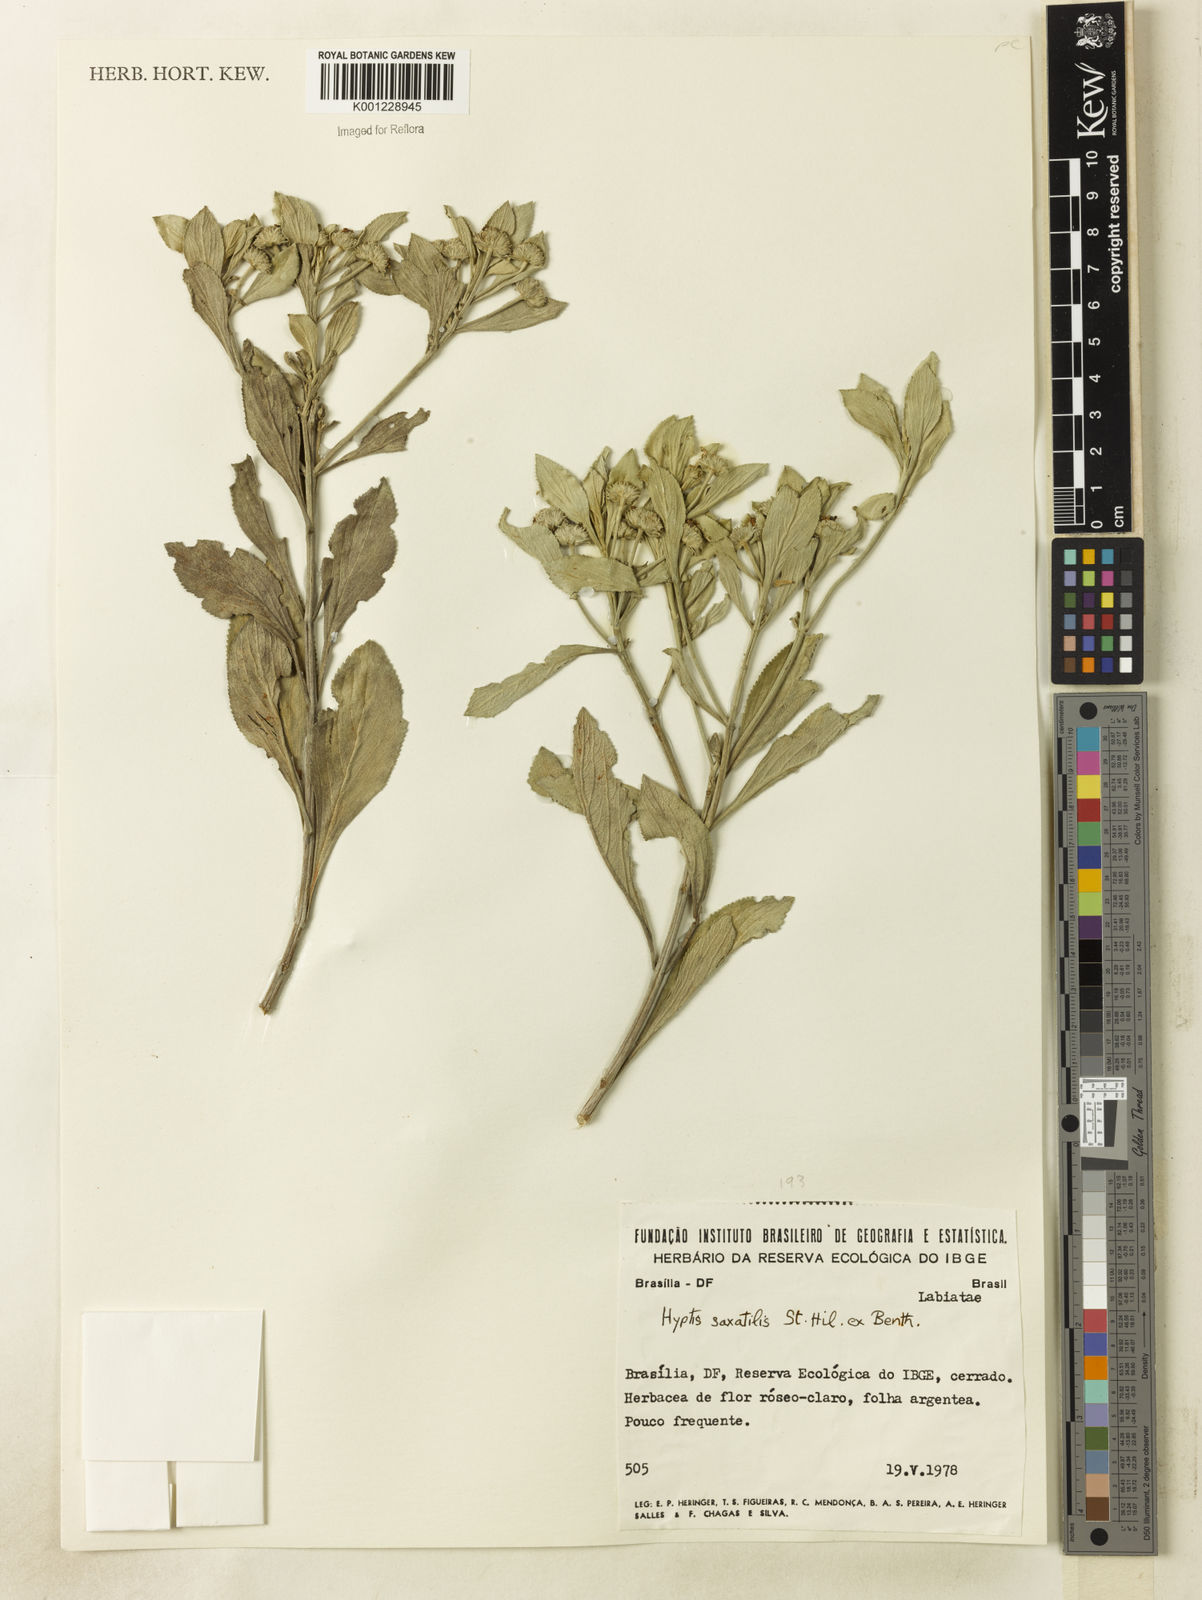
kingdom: Plantae
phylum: Tracheophyta
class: Magnoliopsida
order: Lamiales
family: Lamiaceae
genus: Hyptis
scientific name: Hyptis saxatilis
